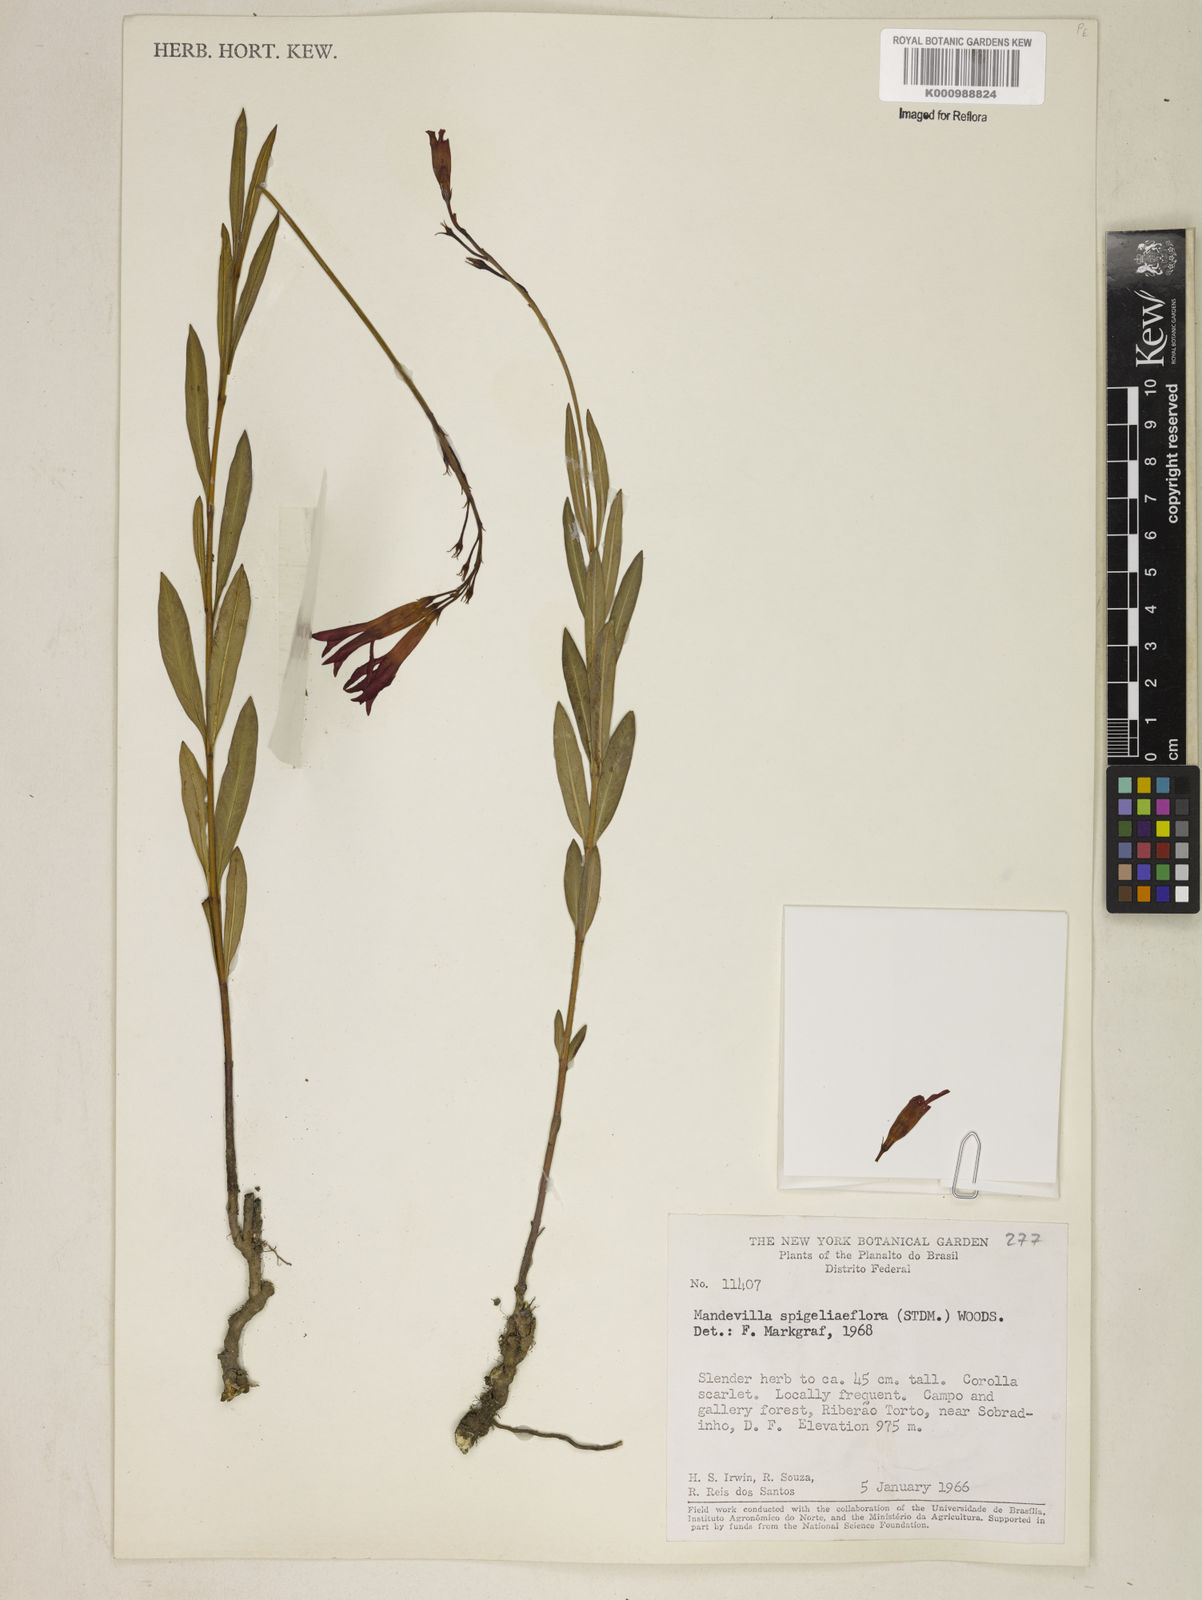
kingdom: Plantae
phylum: Tracheophyta
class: Magnoliopsida
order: Gentianales
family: Apocynaceae
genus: Mandevilla
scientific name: Mandevilla spigeliiflora
